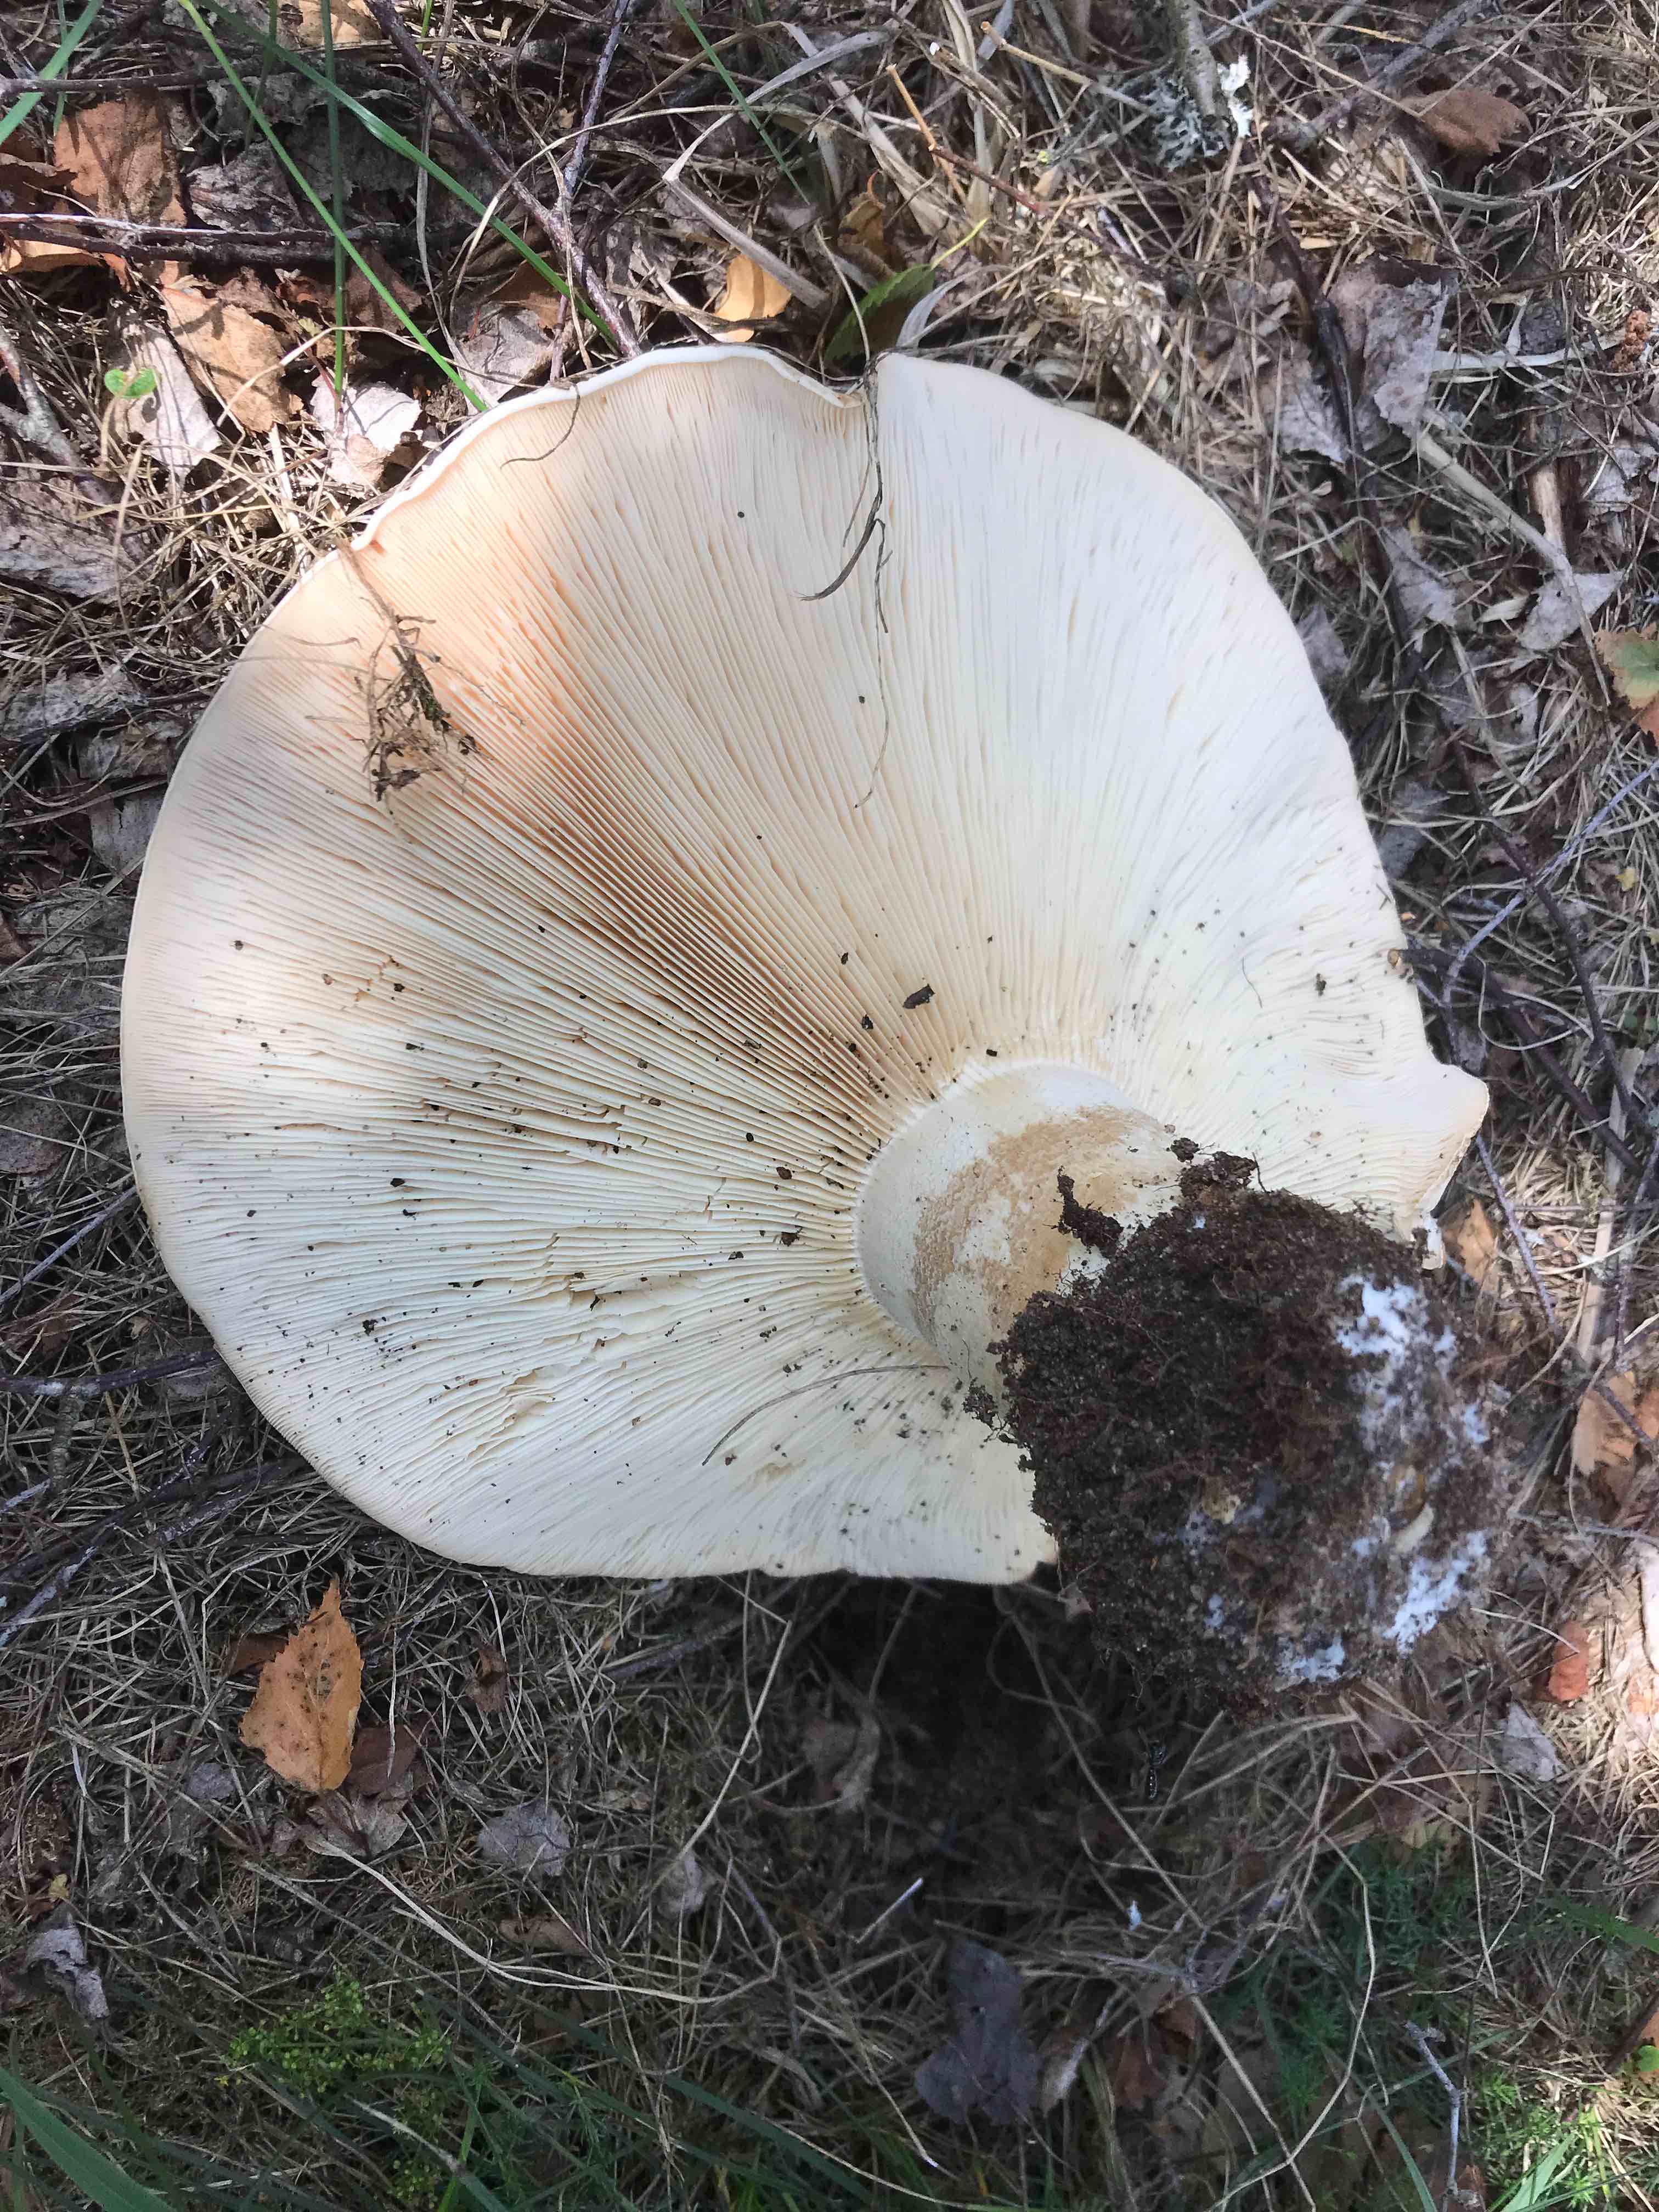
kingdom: Fungi
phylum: Basidiomycota
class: Agaricomycetes
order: Agaricales
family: Tricholomataceae
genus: Aspropaxillus
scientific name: Aspropaxillus giganteus
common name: kæmpe-tragtridderhat
